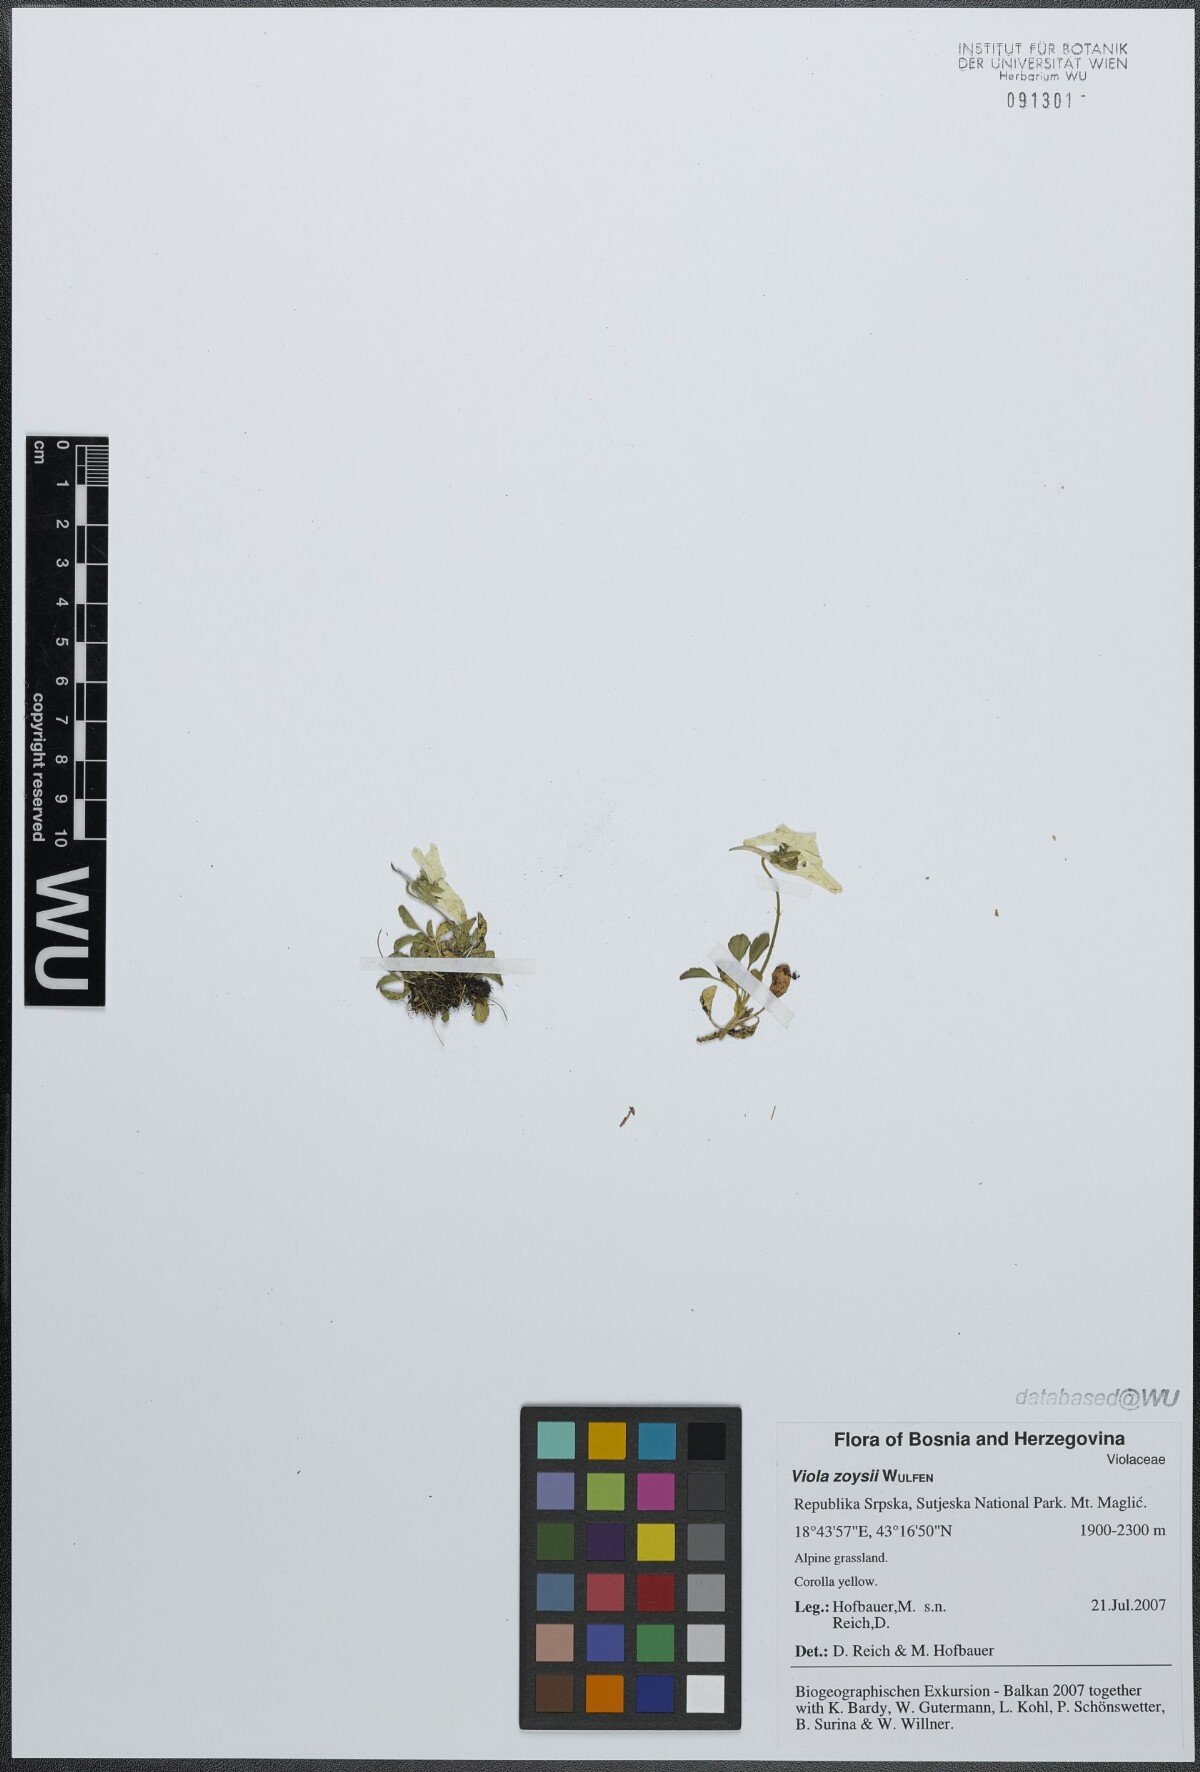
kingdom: Plantae
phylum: Tracheophyta
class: Magnoliopsida
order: Malpighiales
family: Violaceae
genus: Viola
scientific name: Viola calcarata
